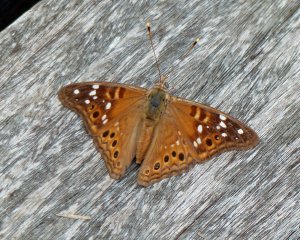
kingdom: Animalia
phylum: Arthropoda
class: Insecta
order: Lepidoptera
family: Nymphalidae
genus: Asterocampa
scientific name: Asterocampa leilia
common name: Empress Leilia
